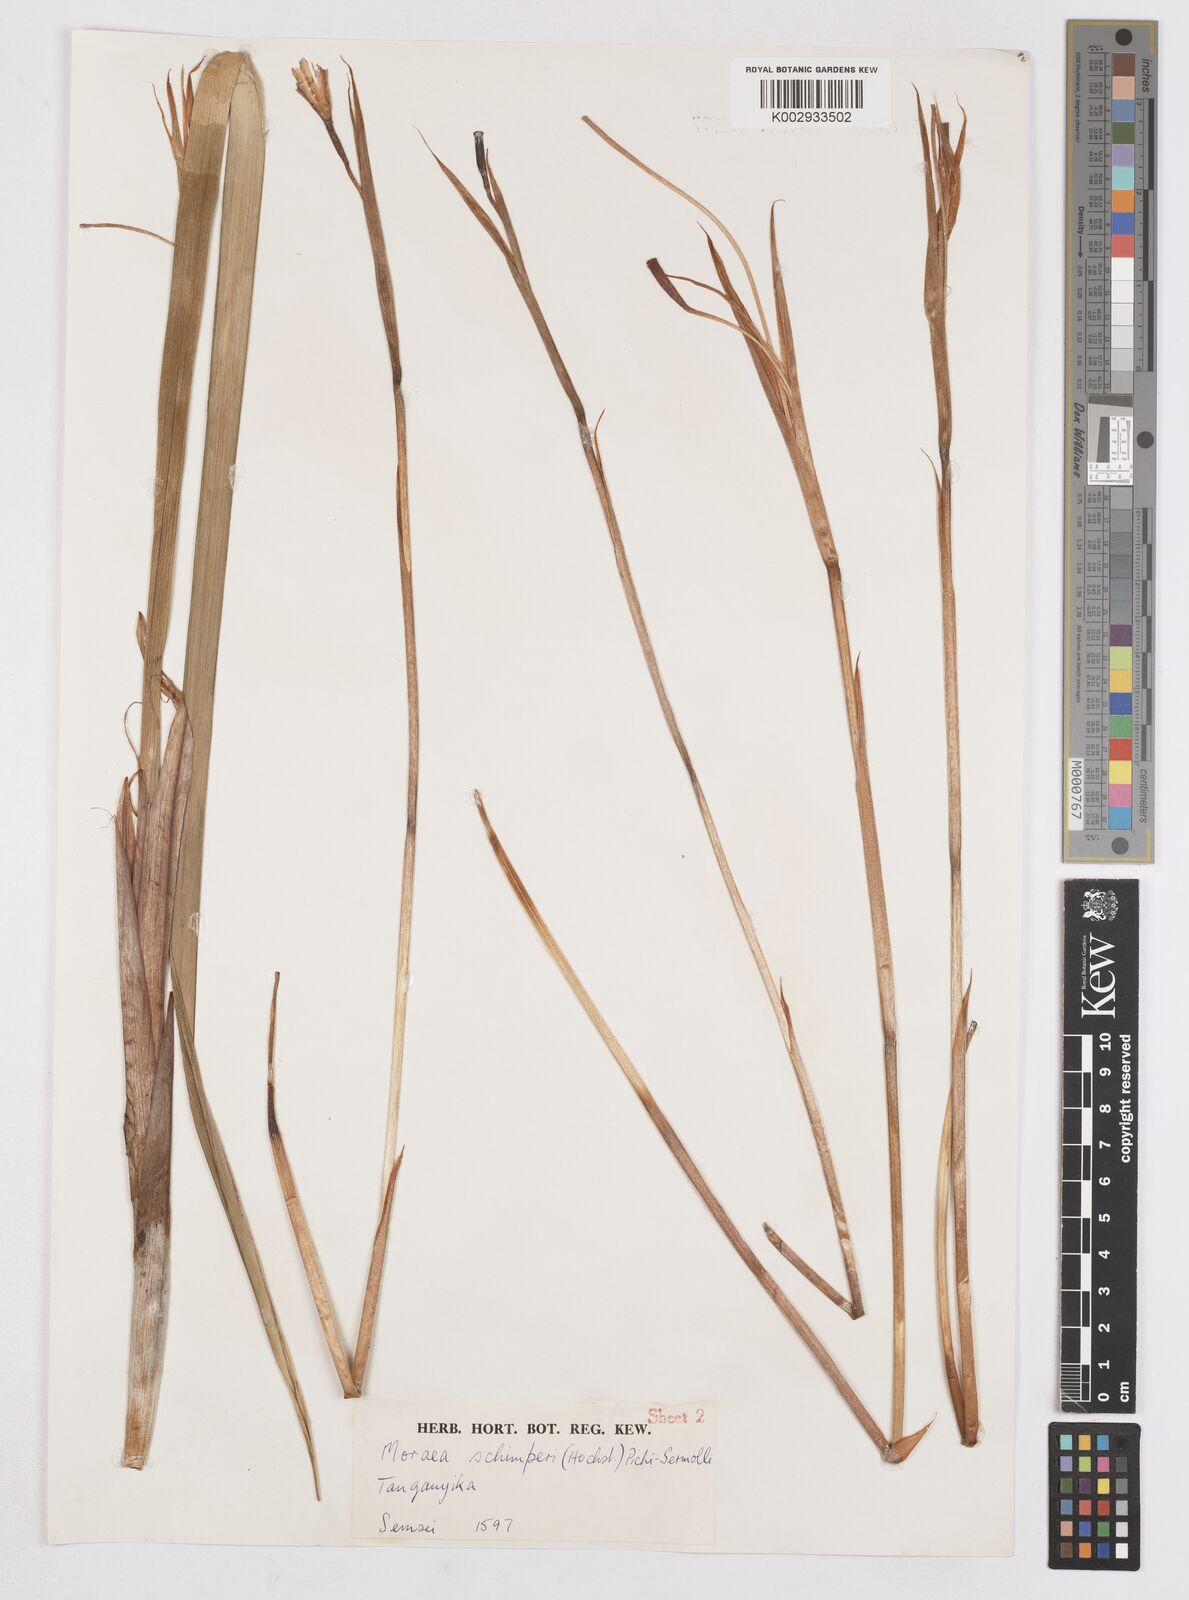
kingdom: Plantae
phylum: Tracheophyta
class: Liliopsida
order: Asparagales
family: Iridaceae
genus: Moraea
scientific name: Moraea schimperi
